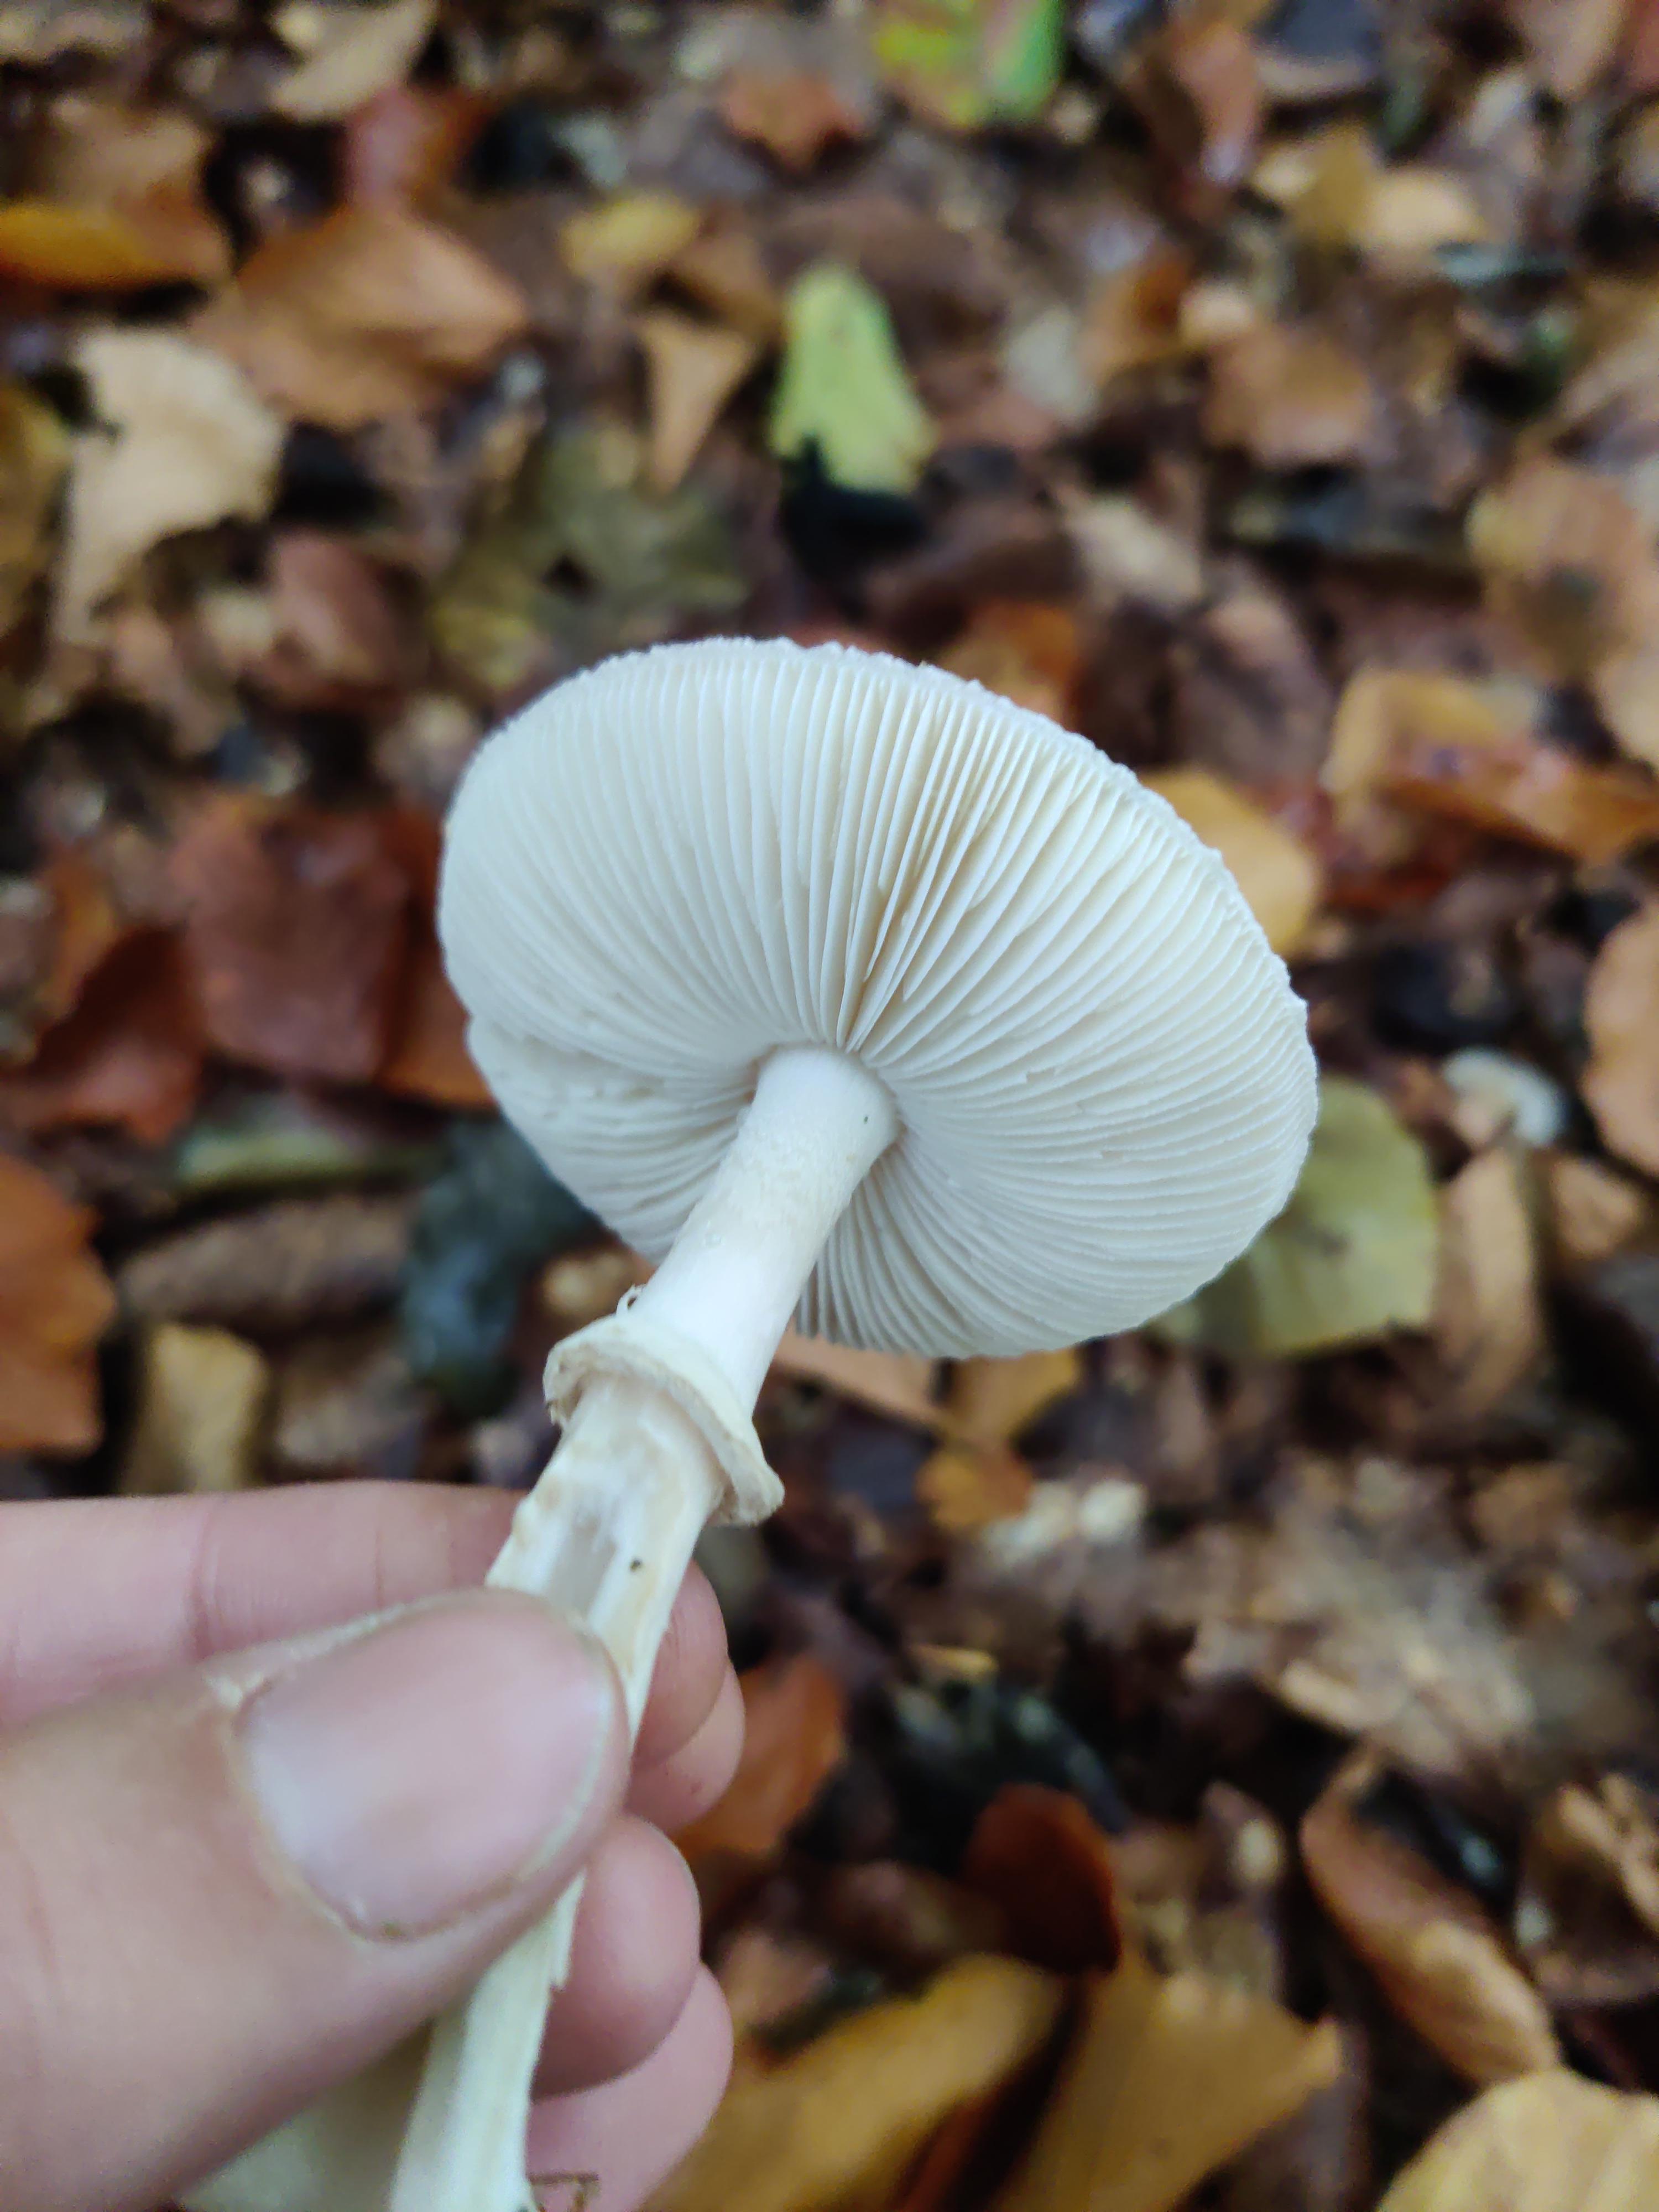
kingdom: Fungi
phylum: Basidiomycota
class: Agaricomycetes
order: Agaricales
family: Amanitaceae
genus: Amanita
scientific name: Amanita citrina
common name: False death-cap
